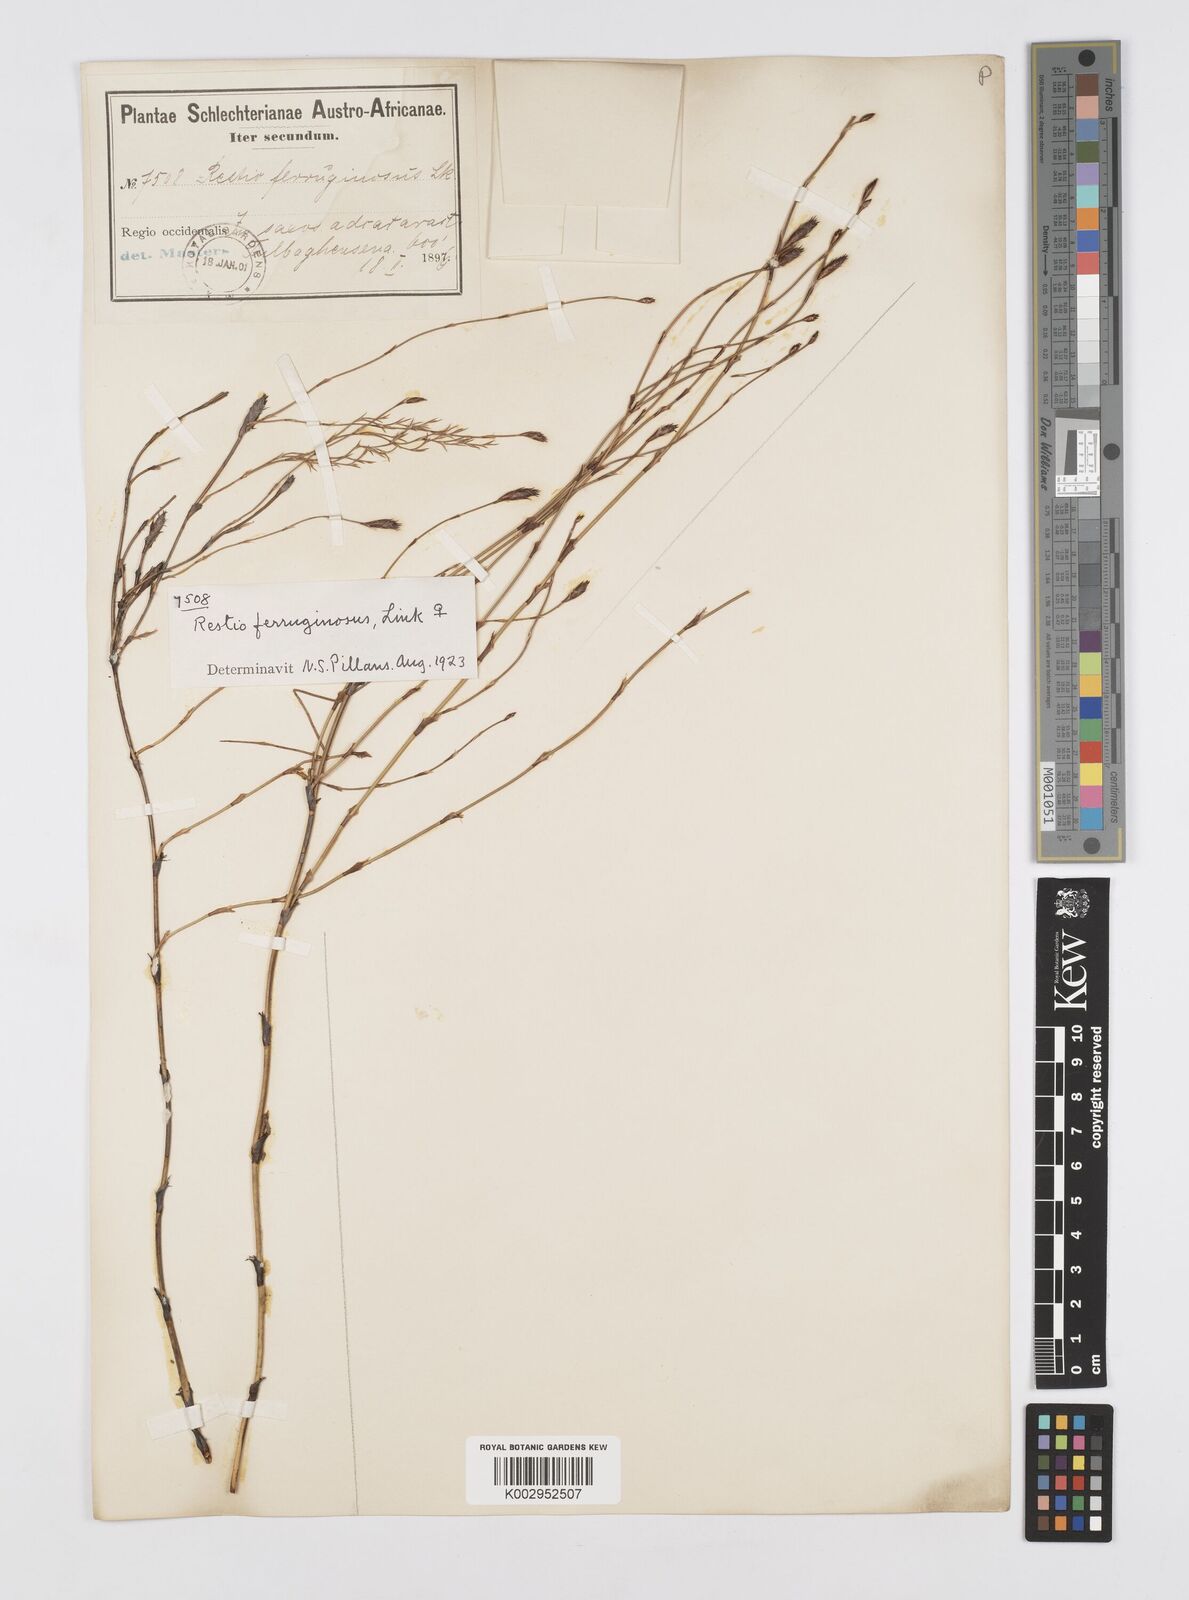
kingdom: Plantae
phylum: Tracheophyta
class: Liliopsida
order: Poales
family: Restionaceae
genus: Restio
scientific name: Restio gaudichaudianus
